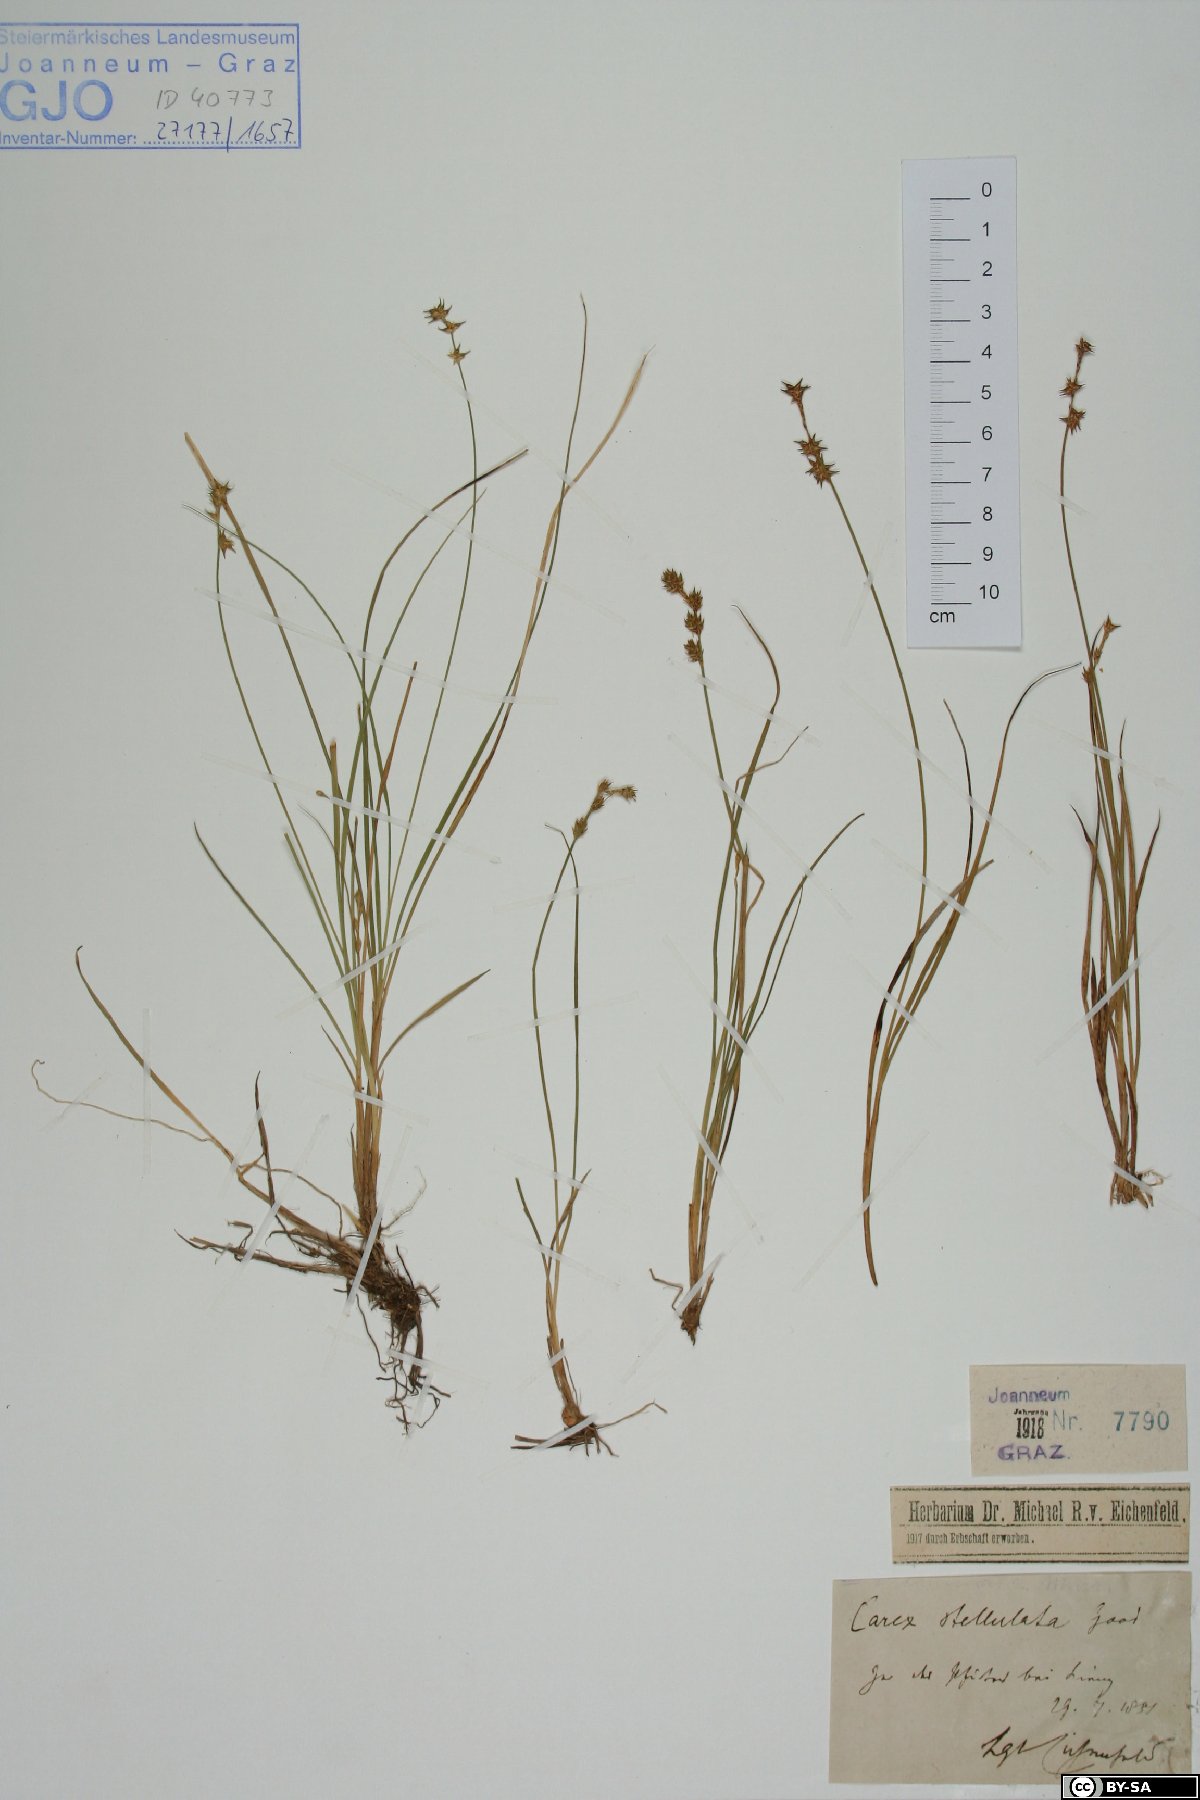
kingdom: Plantae
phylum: Tracheophyta
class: Liliopsida
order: Poales
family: Cyperaceae
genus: Carex
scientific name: Carex echinata
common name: Star sedge
